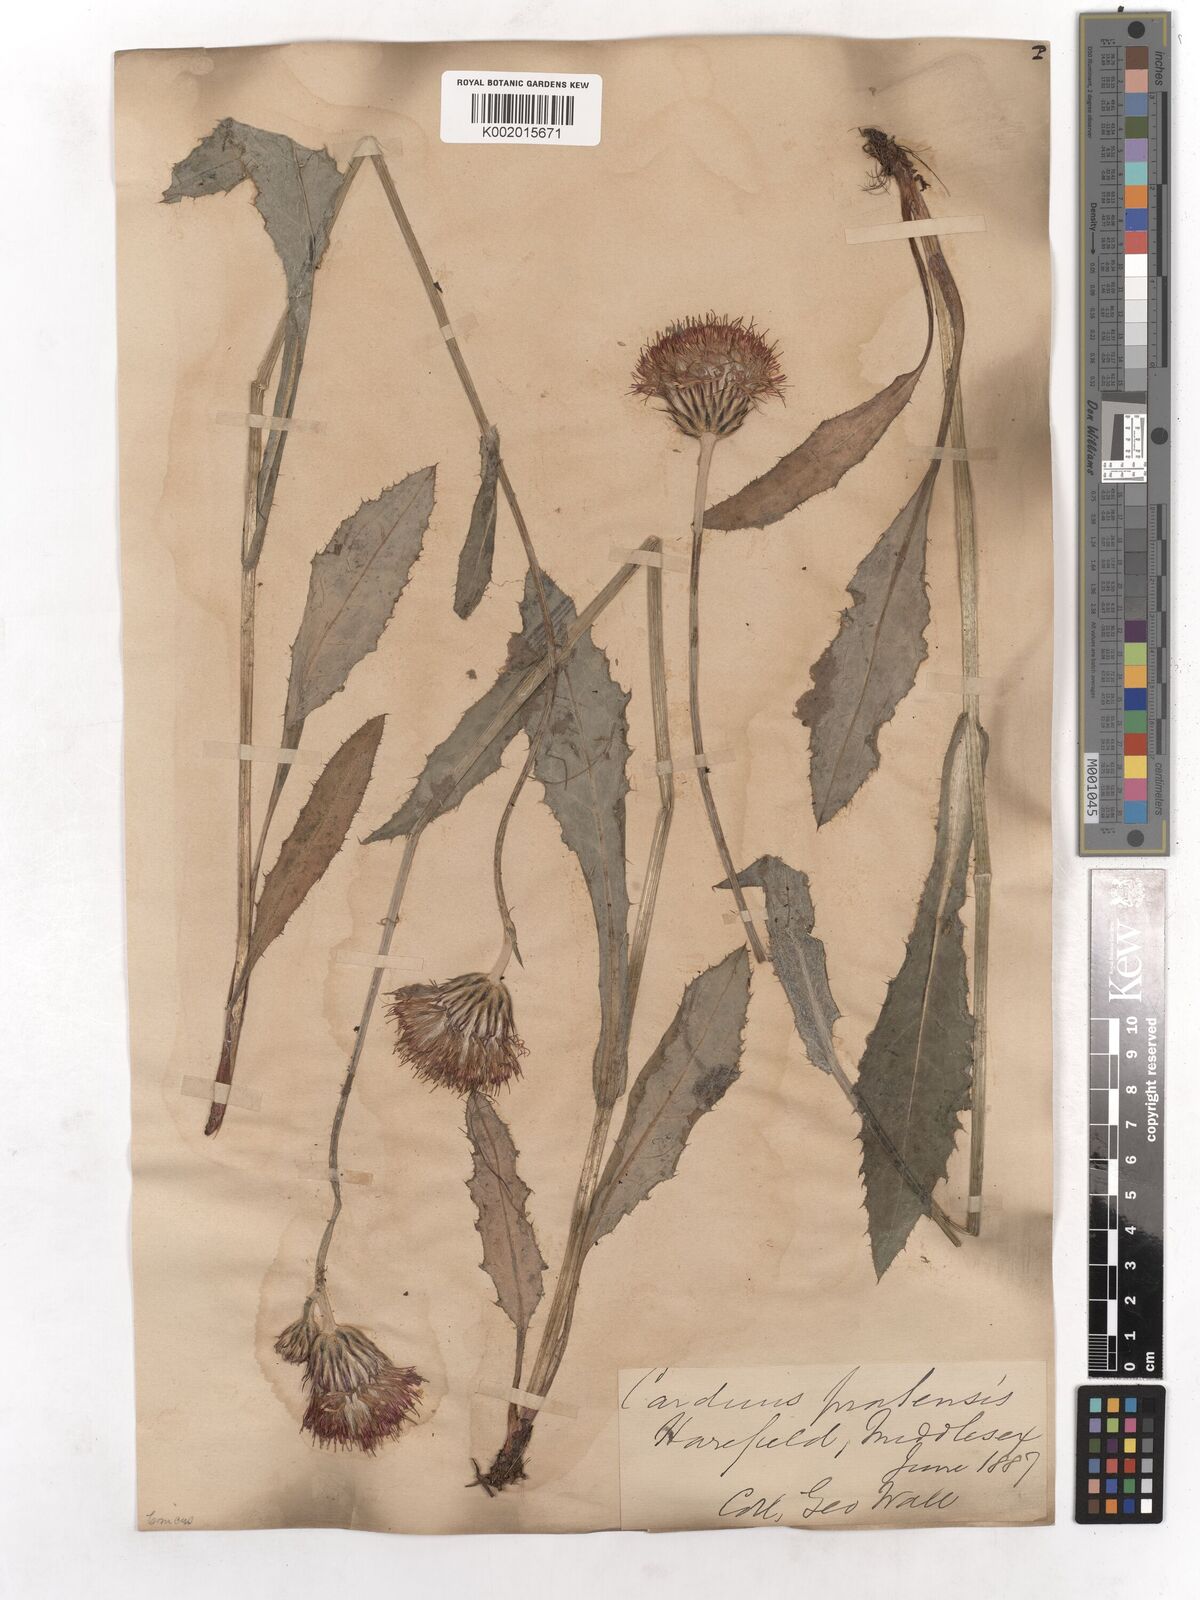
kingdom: Plantae
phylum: Tracheophyta
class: Magnoliopsida
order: Asterales
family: Asteraceae
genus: Cirsium
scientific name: Cirsium dissectum
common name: Meadow thistle
